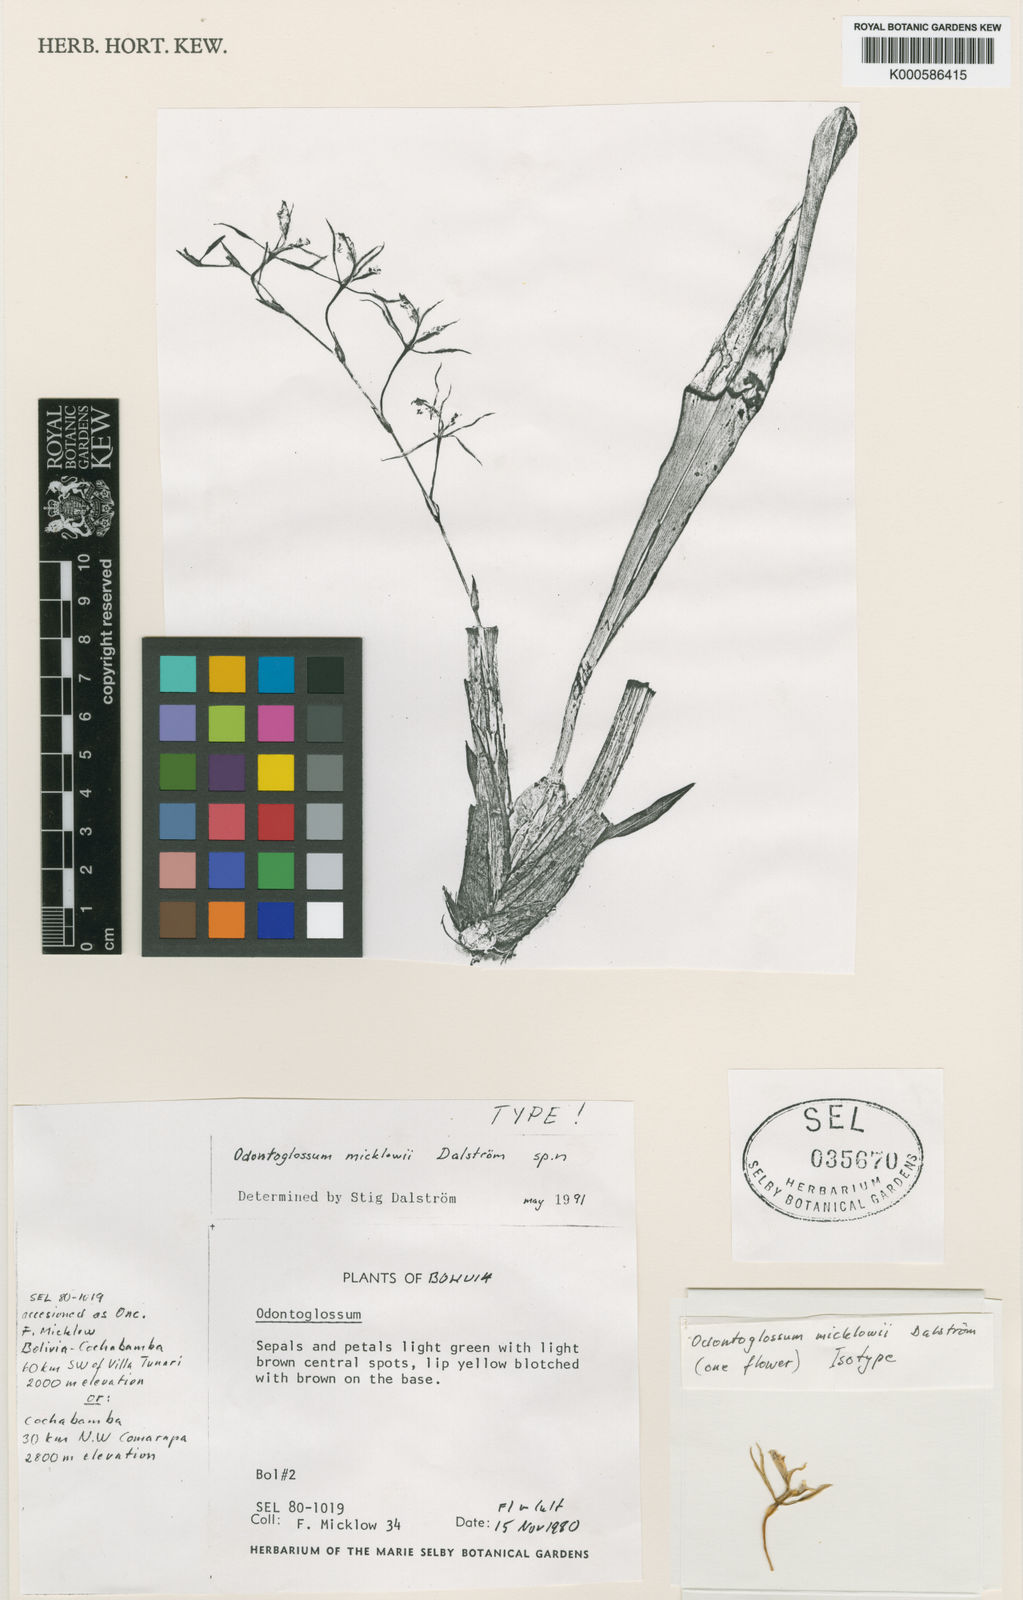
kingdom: Plantae
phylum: Tracheophyta
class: Liliopsida
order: Asparagales
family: Orchidaceae
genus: Oncidium
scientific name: Oncidium
